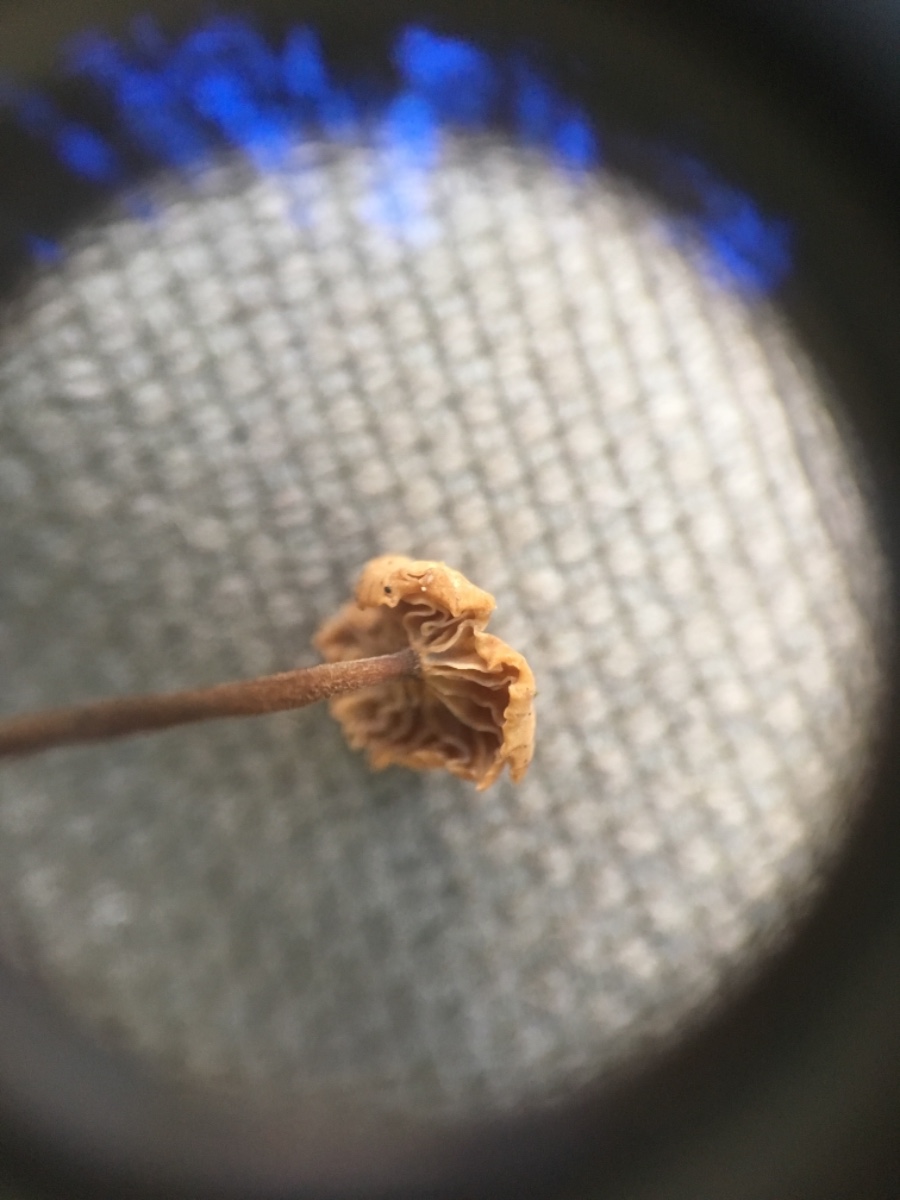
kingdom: Fungi
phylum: Basidiomycota
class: Agaricomycetes
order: Agaricales
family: Omphalotaceae
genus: Paragymnopus
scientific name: Paragymnopus perforans
